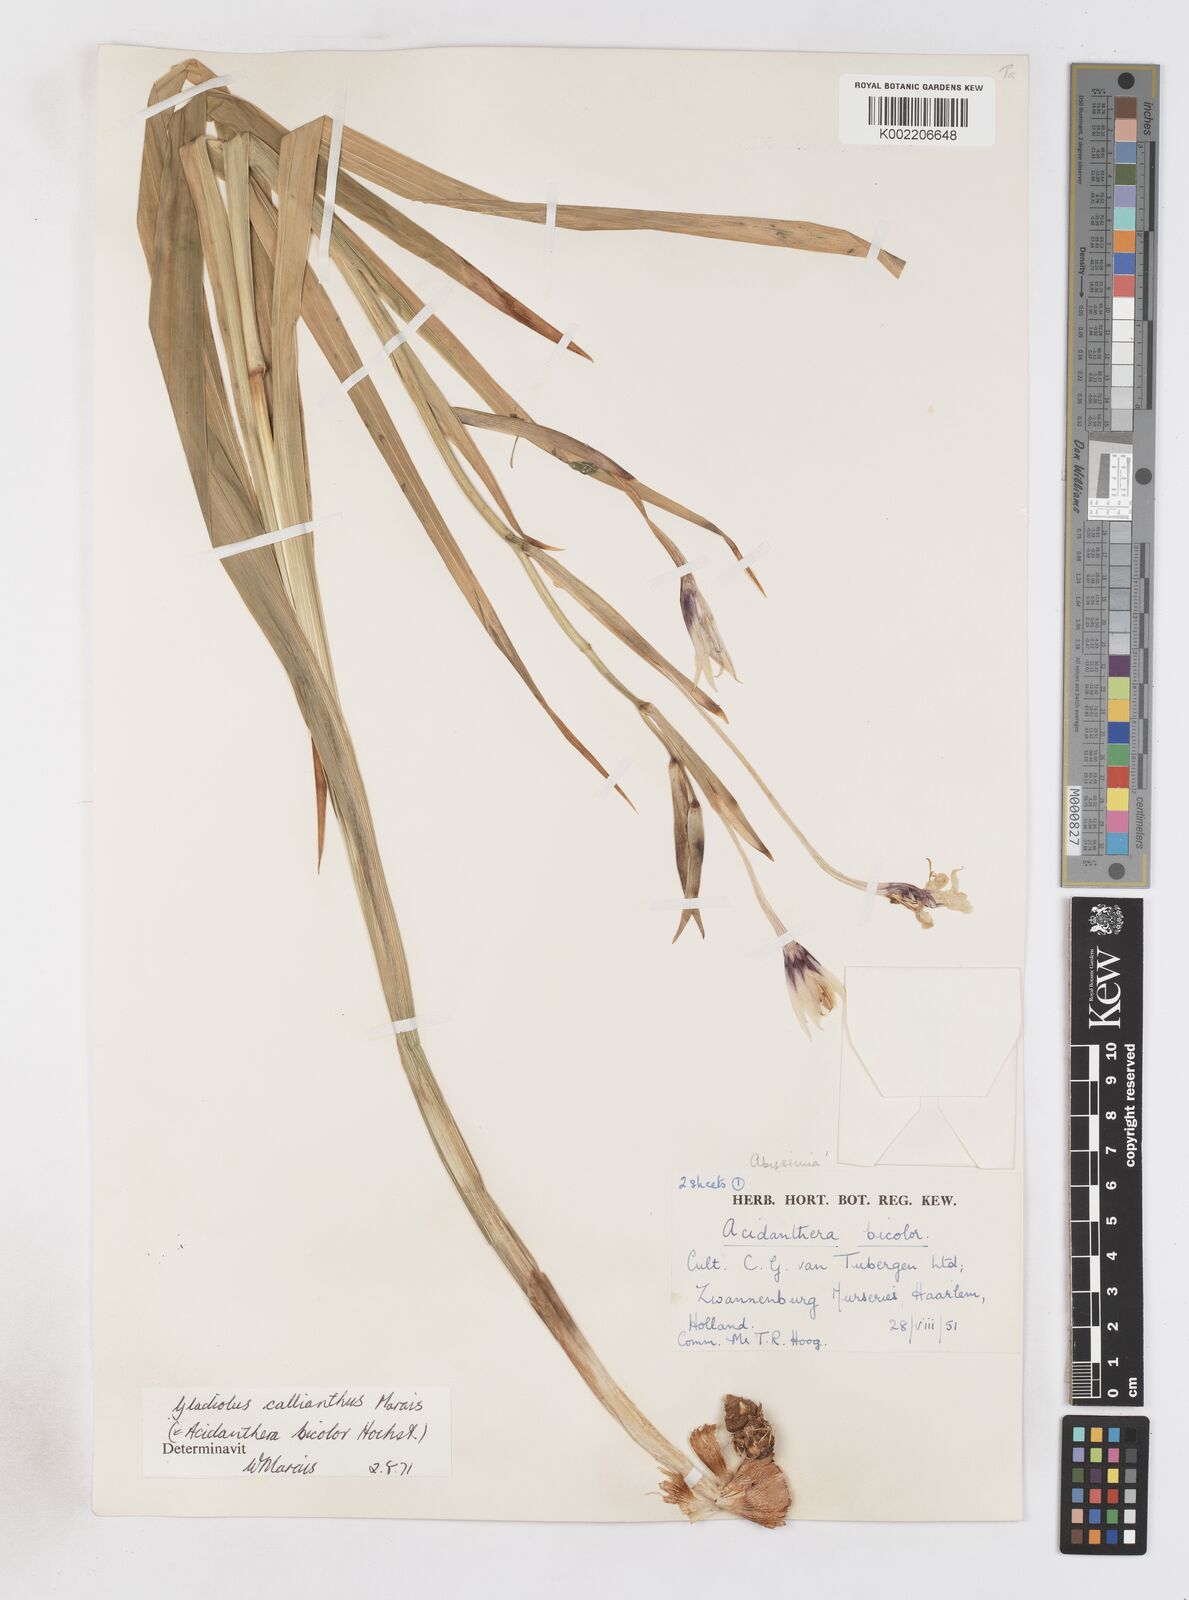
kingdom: Plantae
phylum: Tracheophyta
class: Liliopsida
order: Asparagales
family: Iridaceae
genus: Gladiolus
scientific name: Gladiolus murielae
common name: Acidanthera
